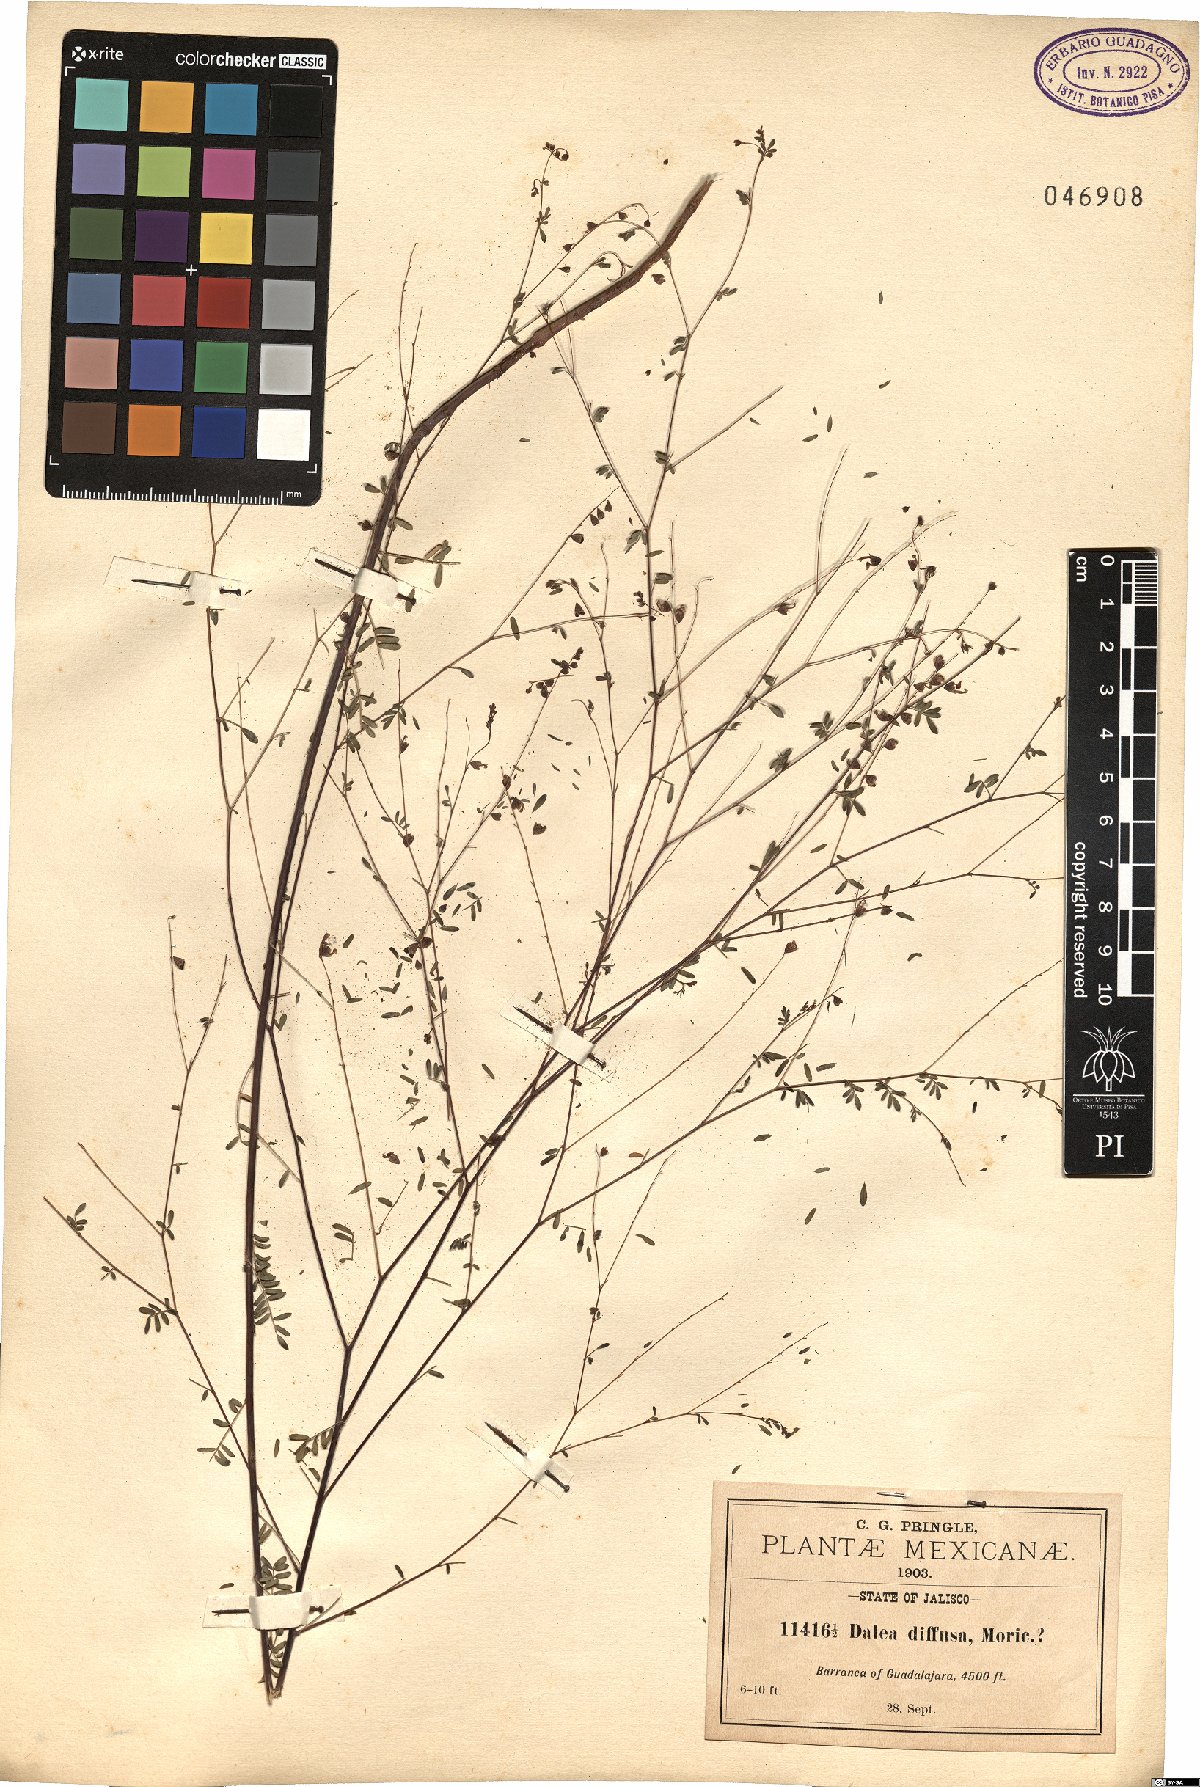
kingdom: Plantae
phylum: Tracheophyta
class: Magnoliopsida
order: Fabales
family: Fabaceae
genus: Marina
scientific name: Marina diffusa
